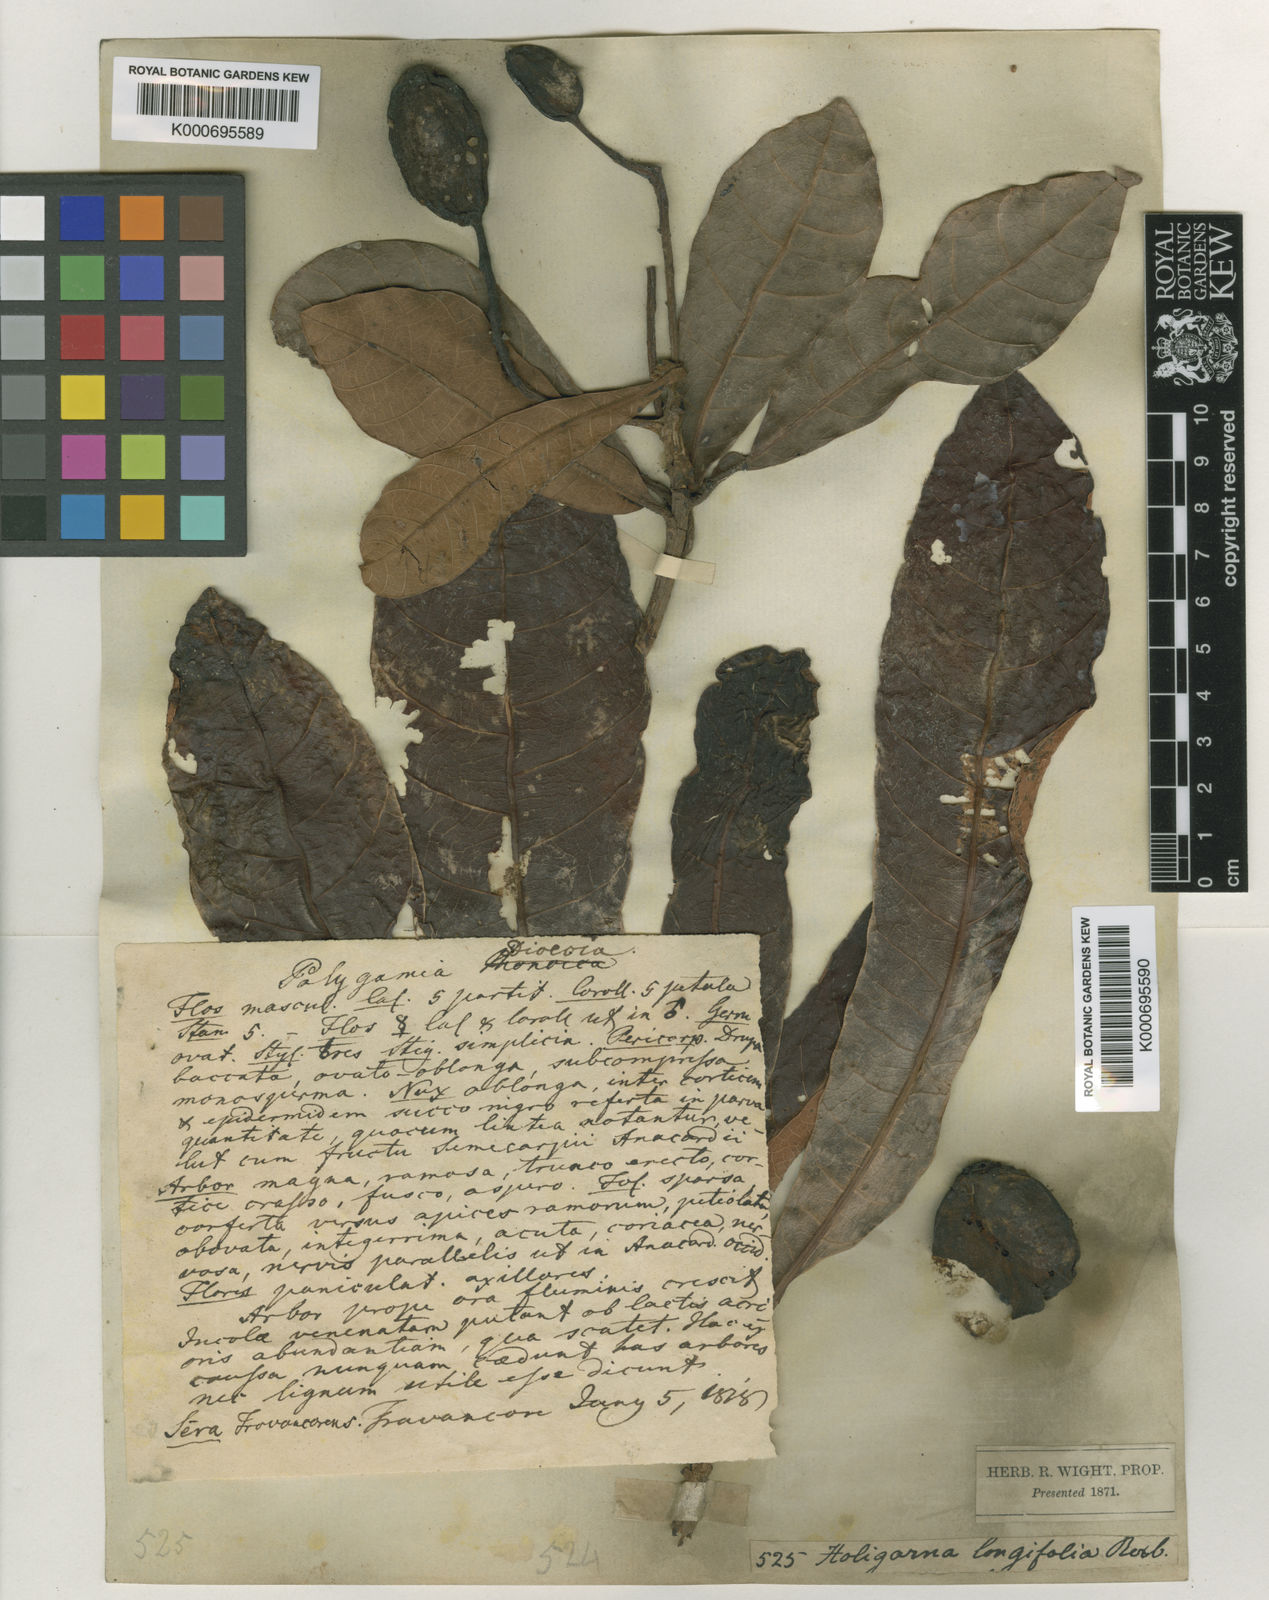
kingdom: Plantae
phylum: Tracheophyta
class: Magnoliopsida
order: Sapindales
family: Anacardiaceae
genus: Holigarna
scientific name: Holigarna caustica
